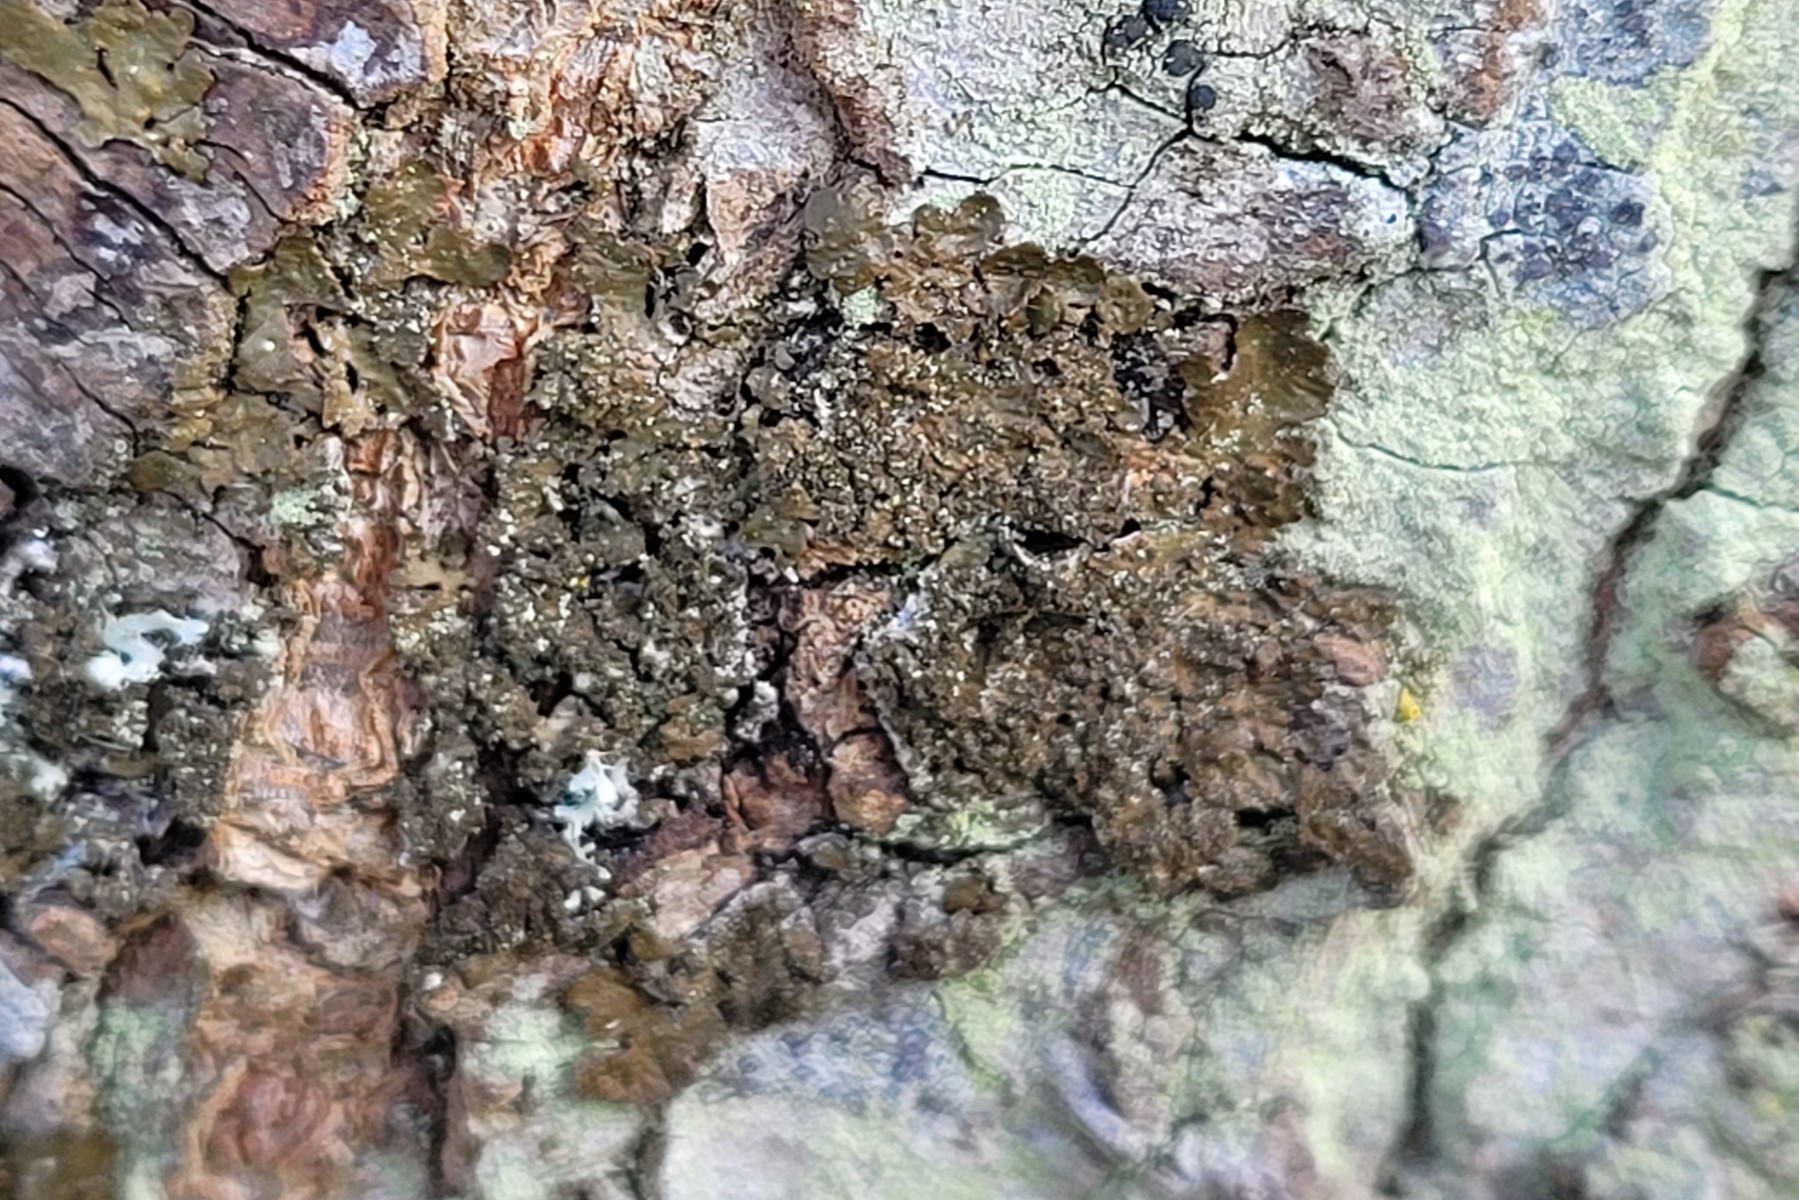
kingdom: Fungi
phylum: Ascomycota
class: Lecanoromycetes
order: Lecanorales
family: Parmeliaceae
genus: Melanelixia
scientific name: Melanelixia subaurifera
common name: guldpudret skållav
